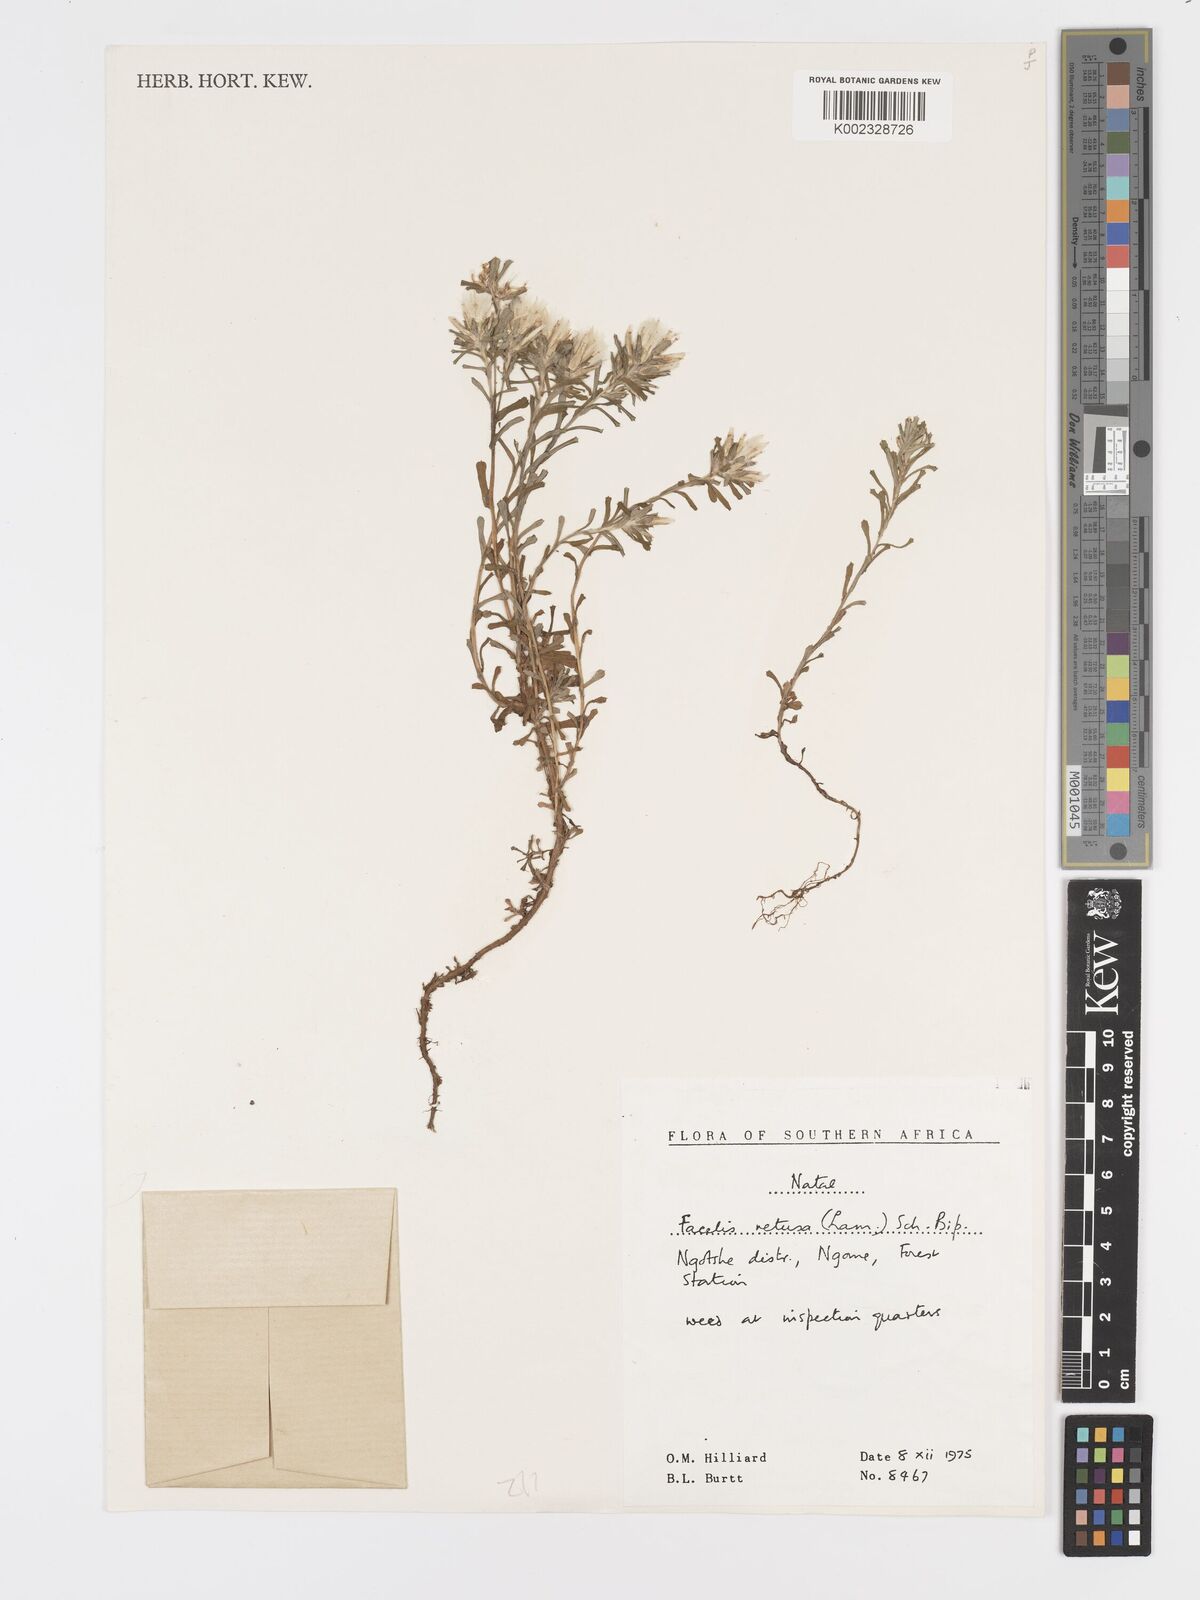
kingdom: Plantae
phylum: Tracheophyta
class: Magnoliopsida
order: Asterales
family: Asteraceae
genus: Facelis
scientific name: Facelis retusa
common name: Annual trampweed
